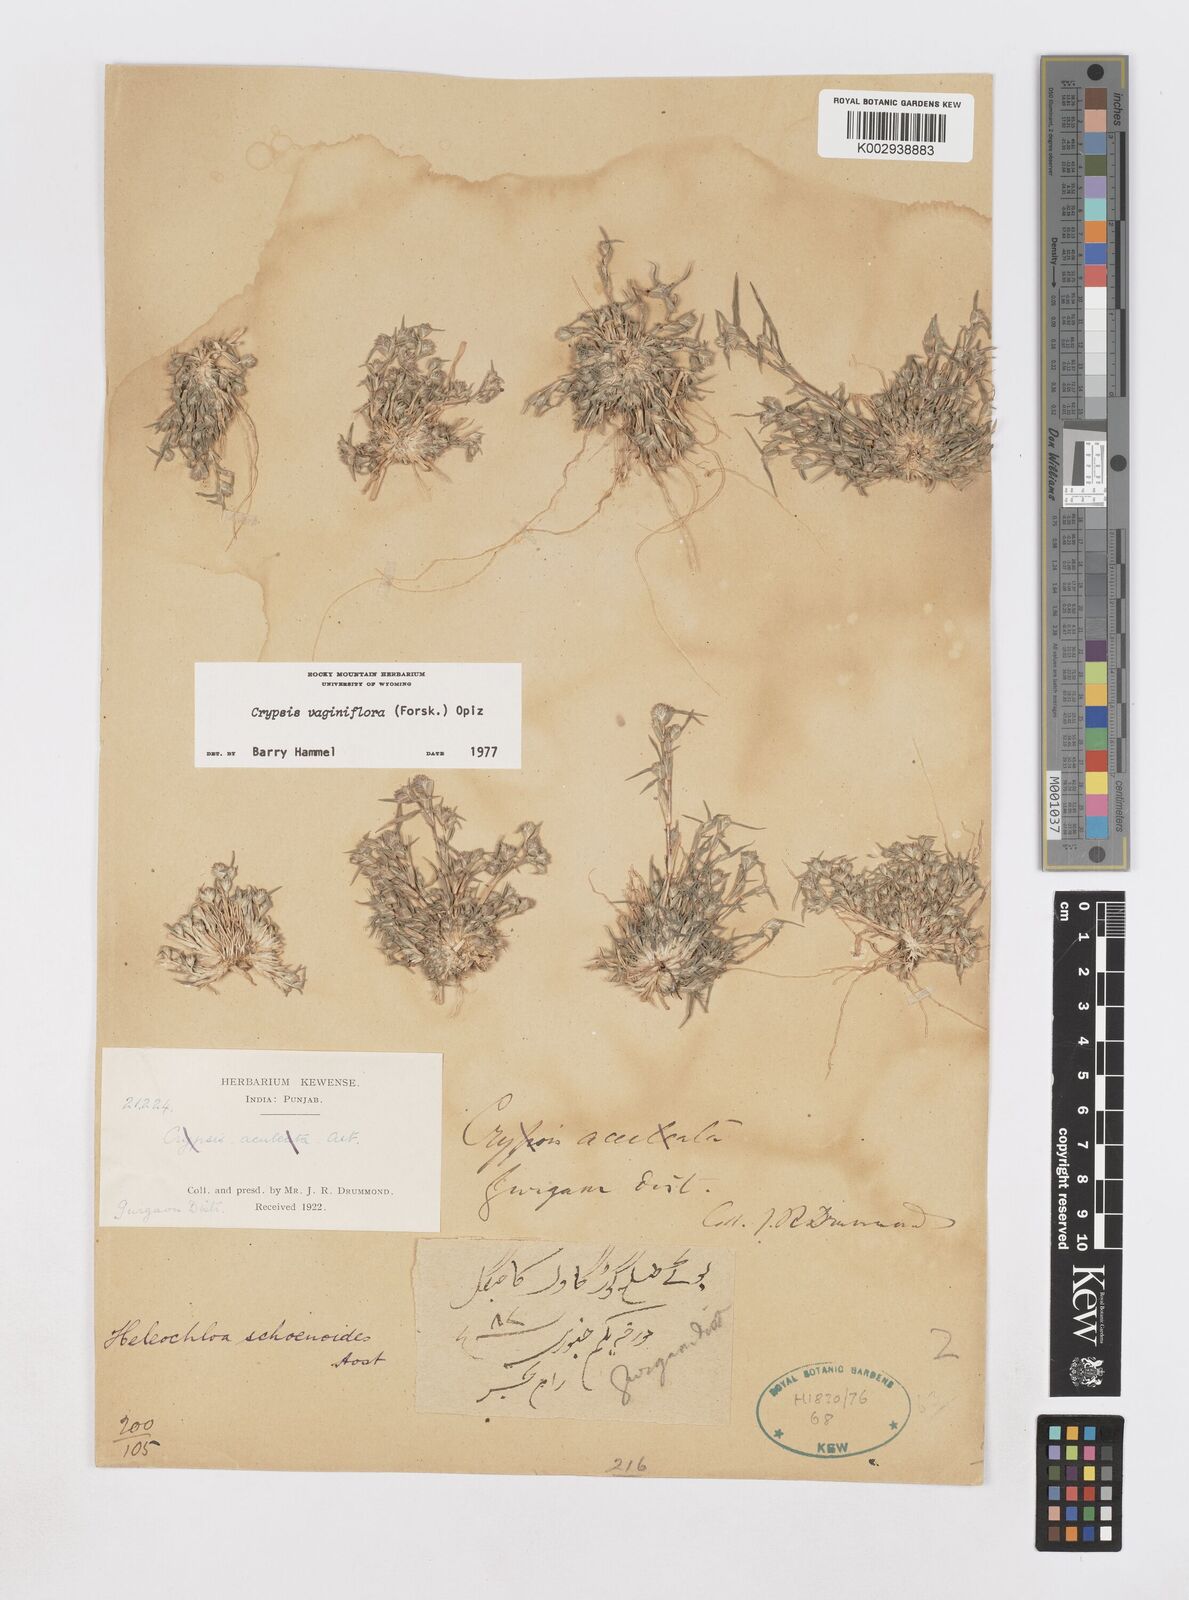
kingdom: Plantae
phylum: Tracheophyta
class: Liliopsida
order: Poales
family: Poaceae
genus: Sporobolus
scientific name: Sporobolus niliacus
